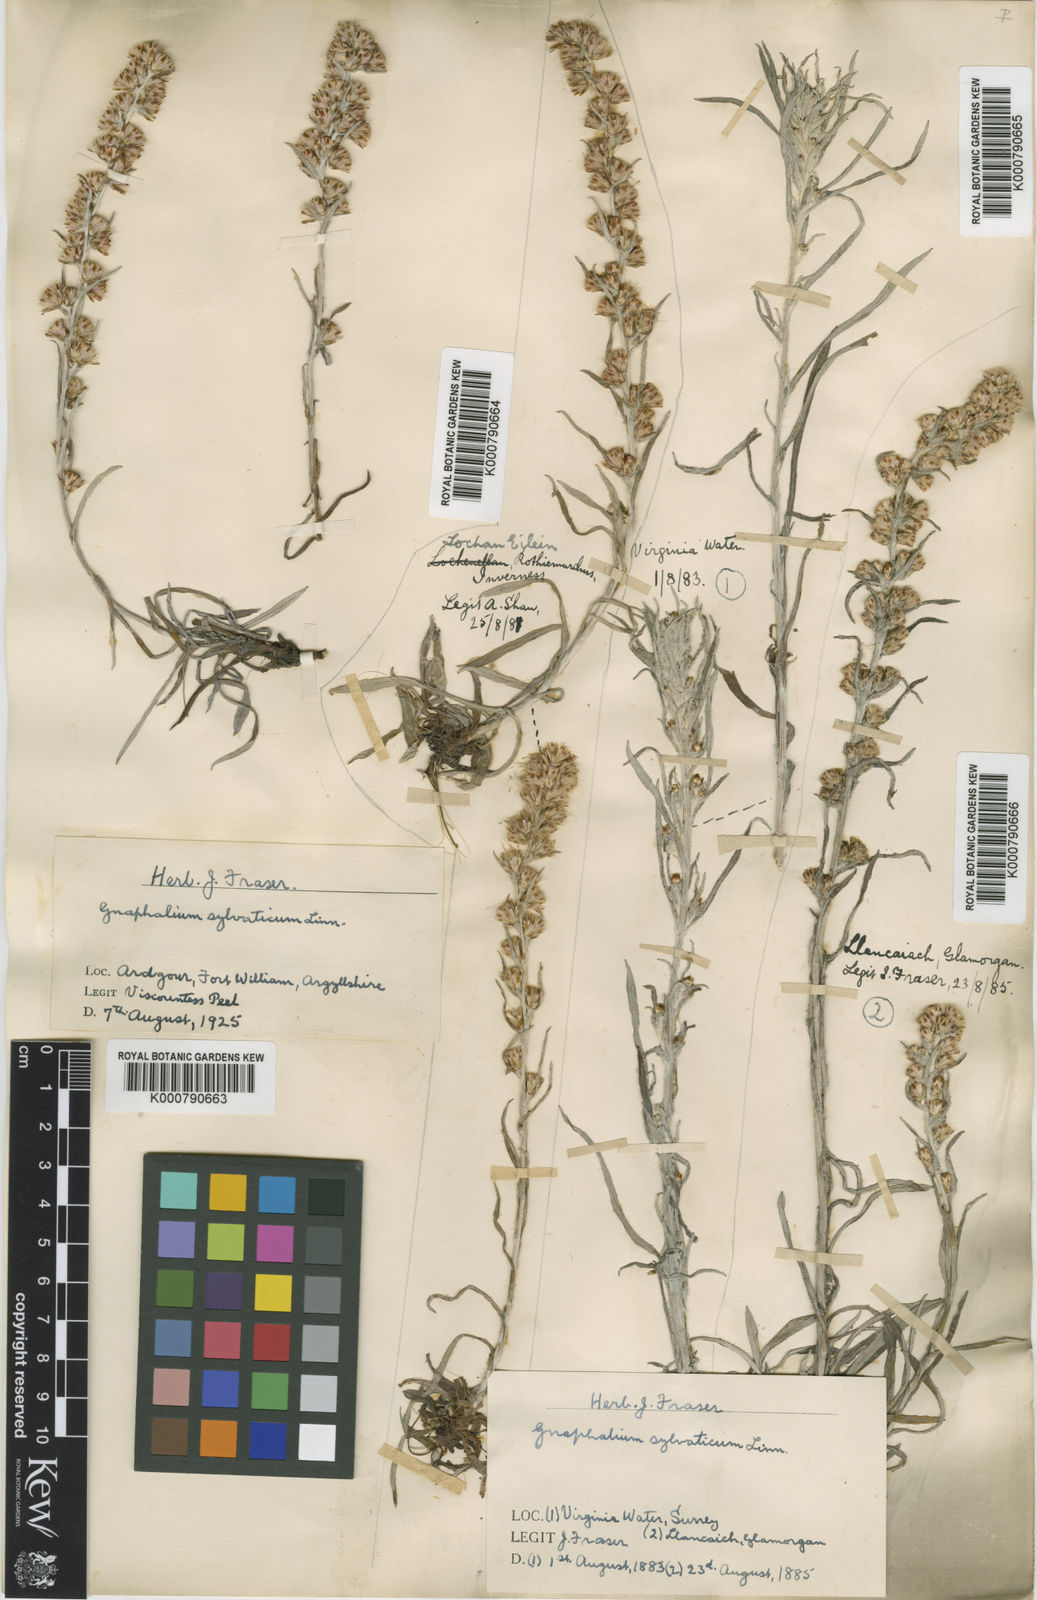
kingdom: Plantae
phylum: Tracheophyta
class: Magnoliopsida
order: Asterales
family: Asteraceae
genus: Omalotheca
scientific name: Omalotheca sylvatica
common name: Heath cudweed
